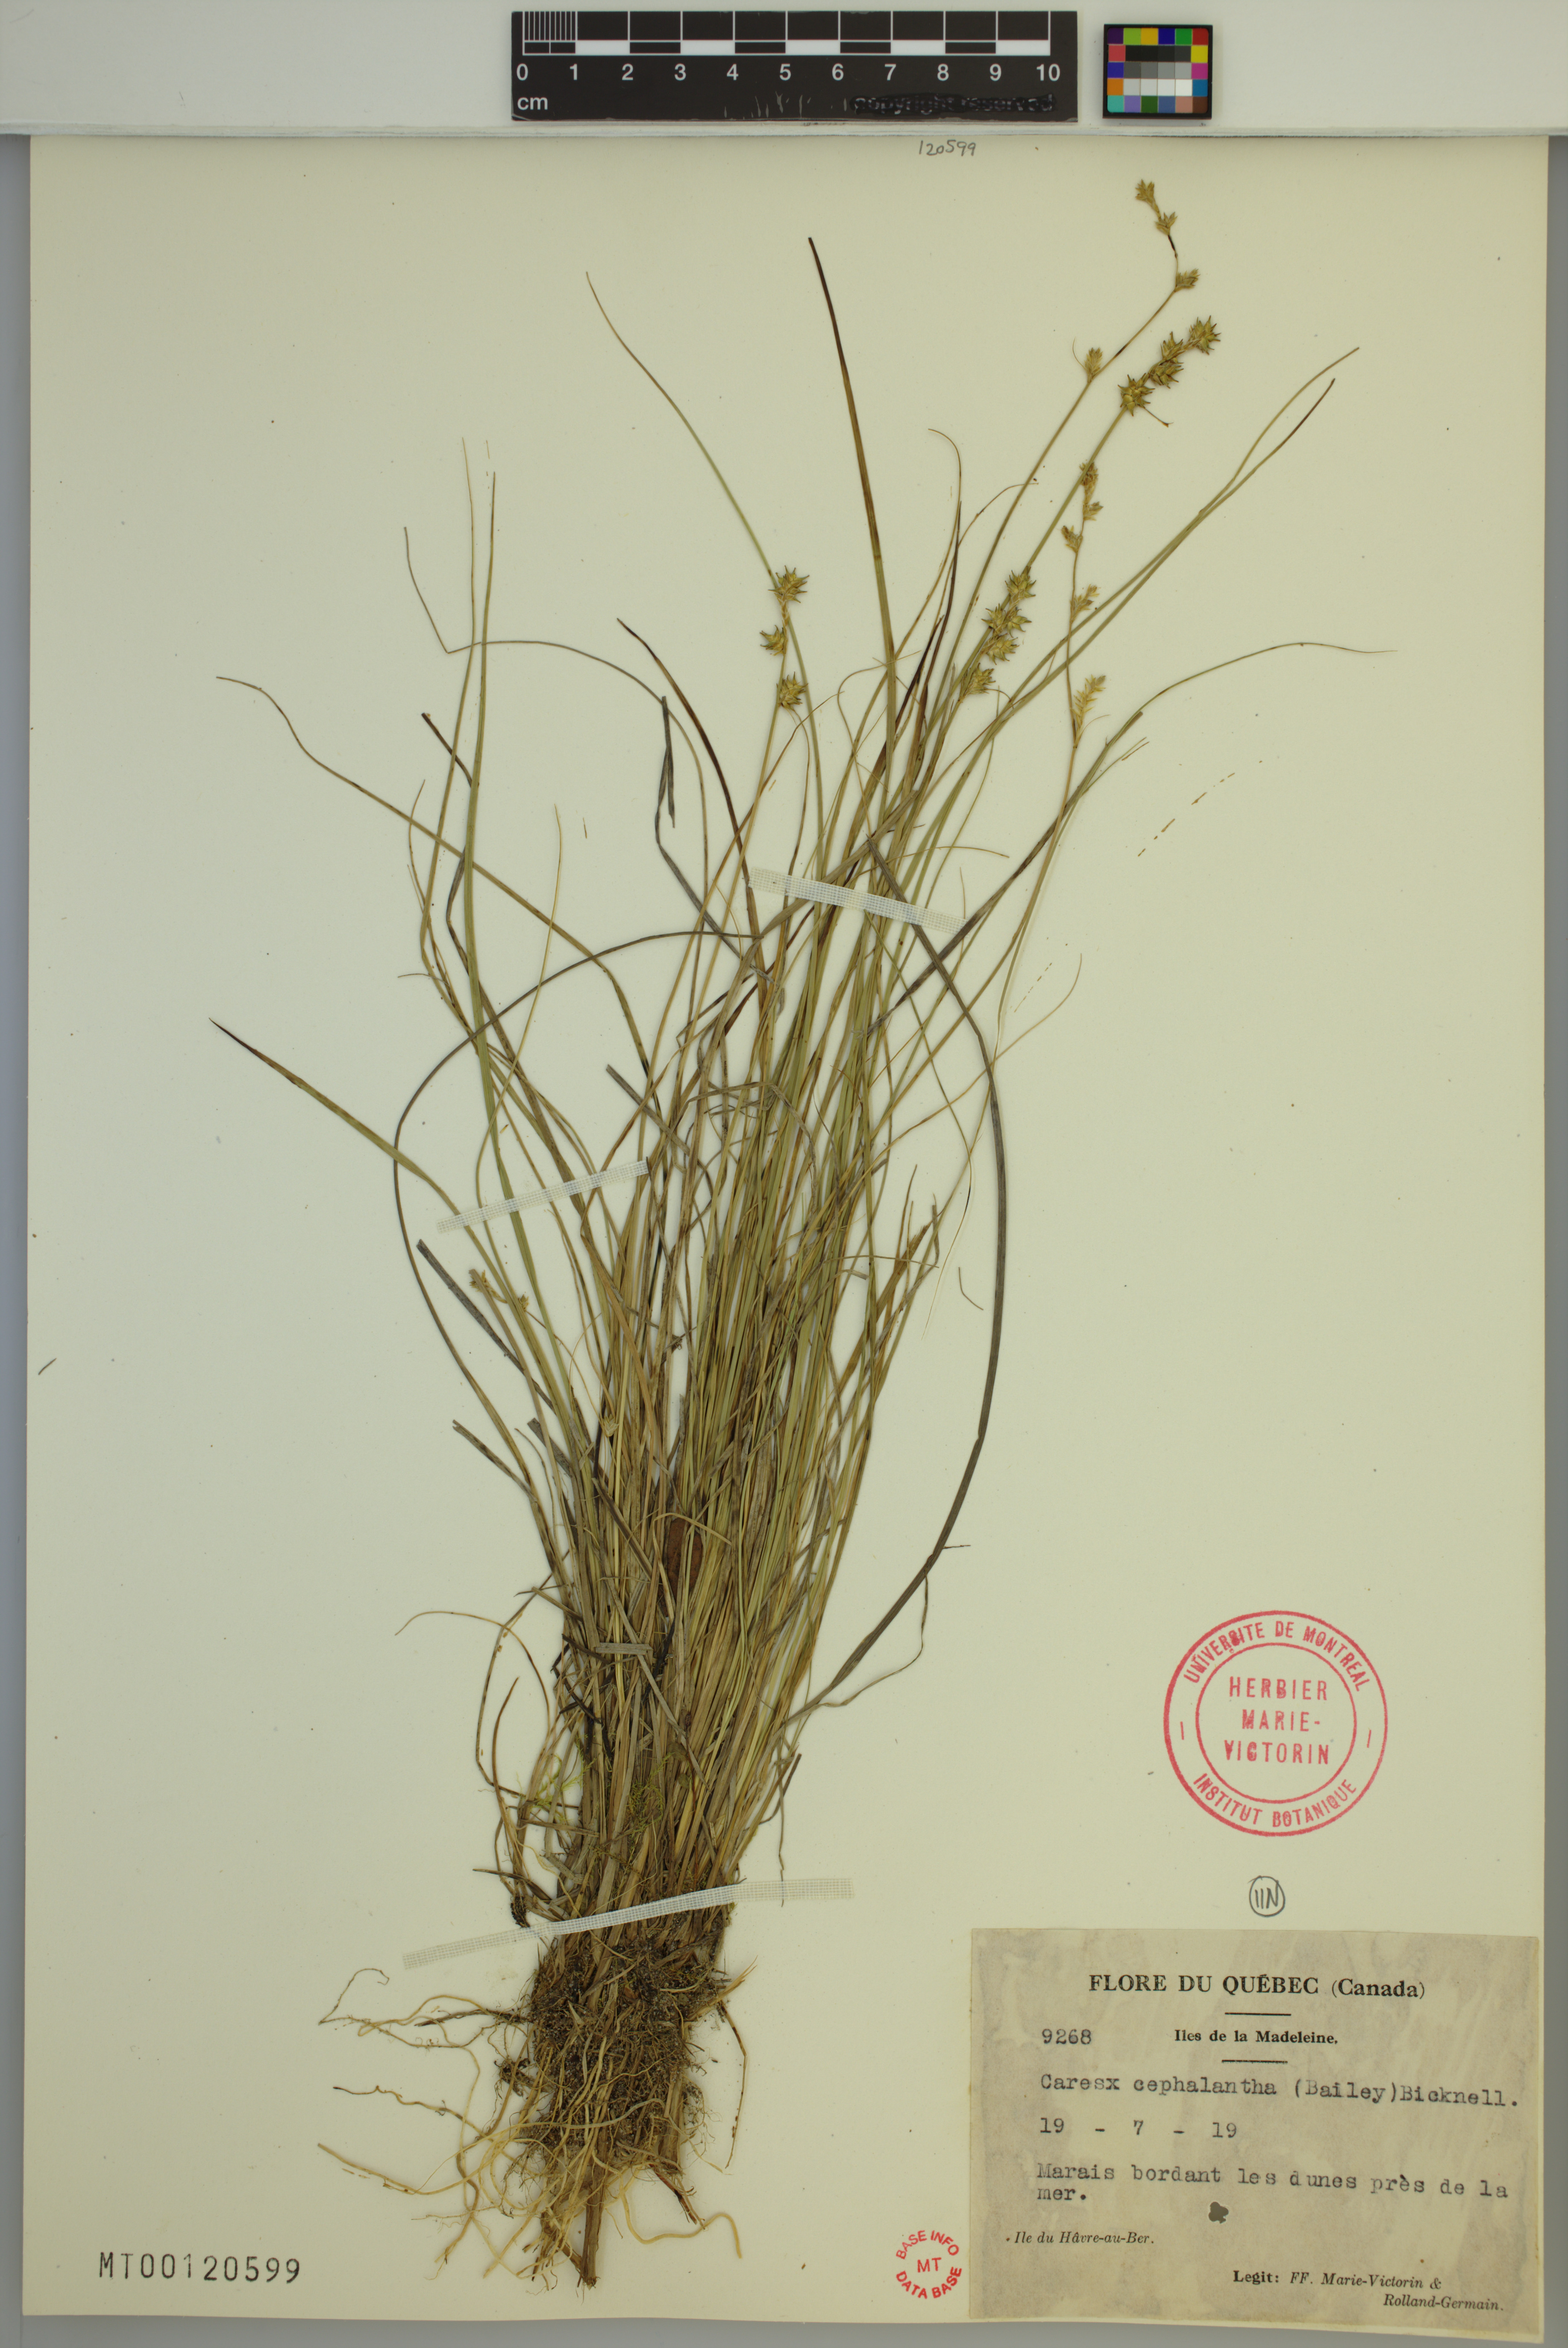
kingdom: Plantae
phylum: Tracheophyta
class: Liliopsida
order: Poales
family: Cyperaceae
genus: Carex
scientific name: Carex echinata
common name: Star sedge
